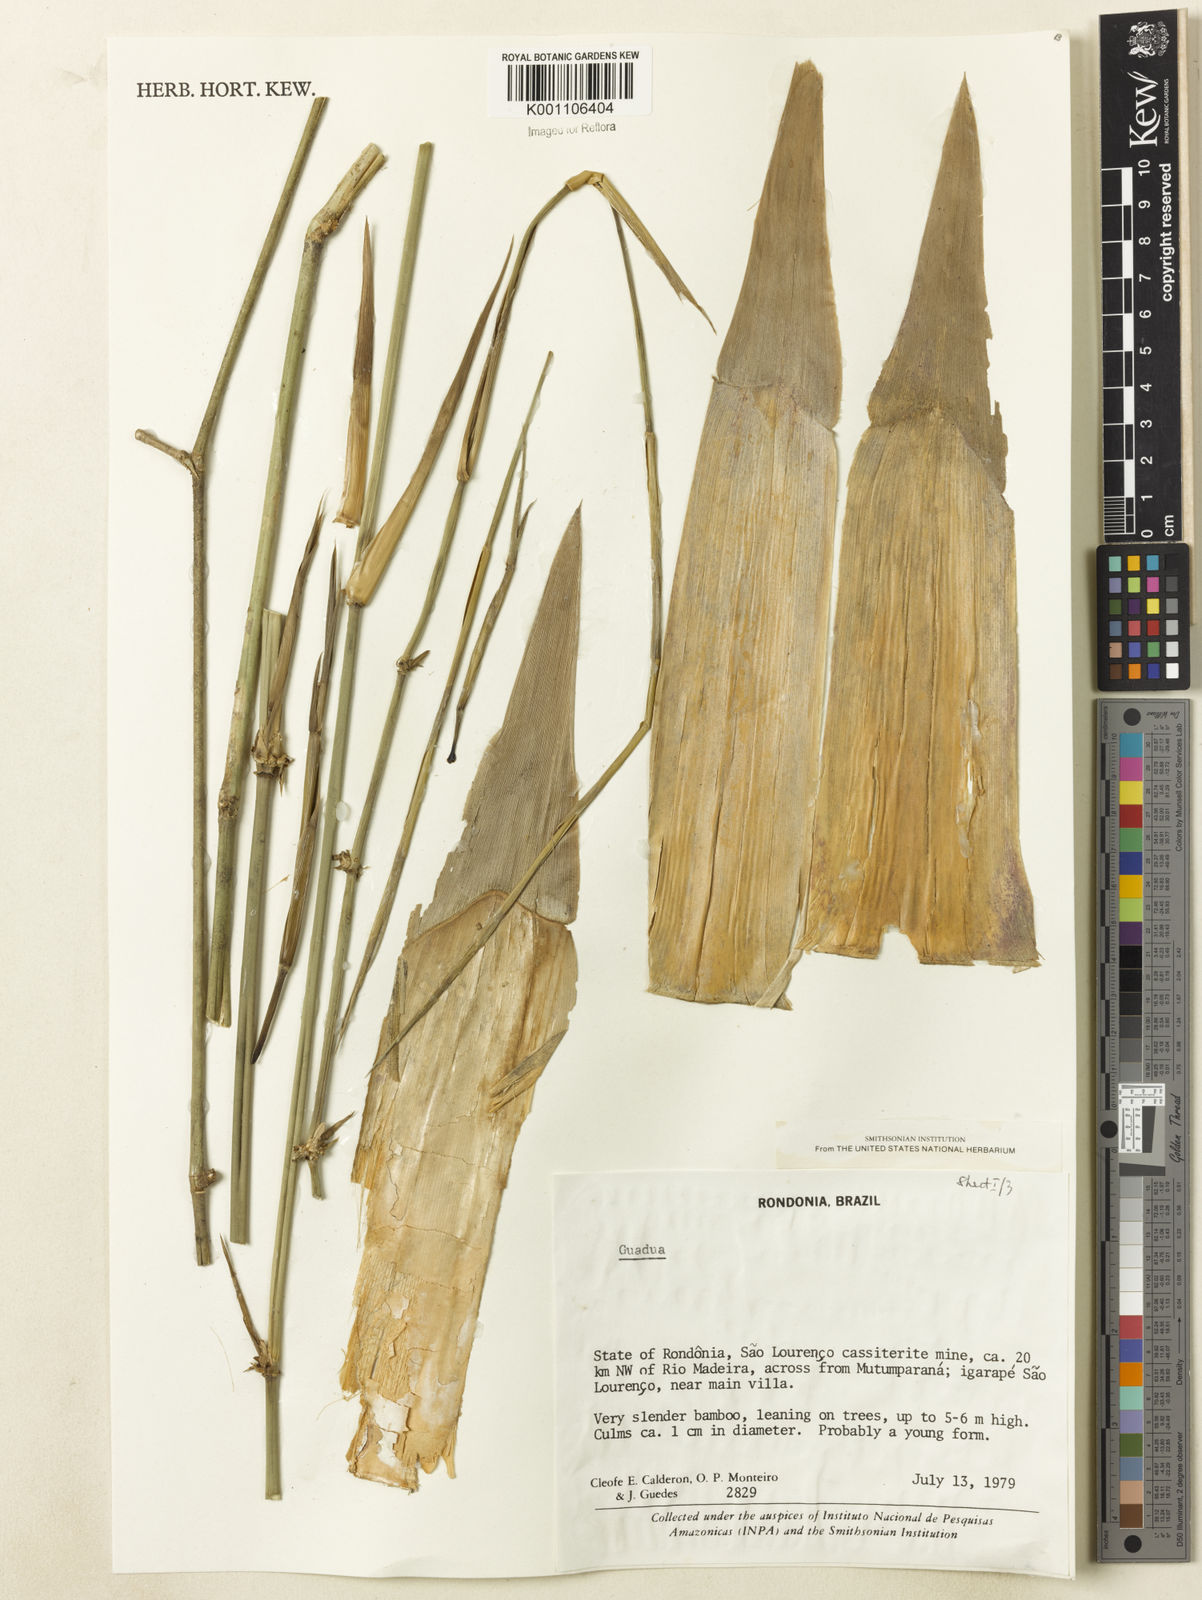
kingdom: Plantae
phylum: Tracheophyta
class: Liliopsida
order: Poales
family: Poaceae
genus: Guadua
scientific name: Guadua
